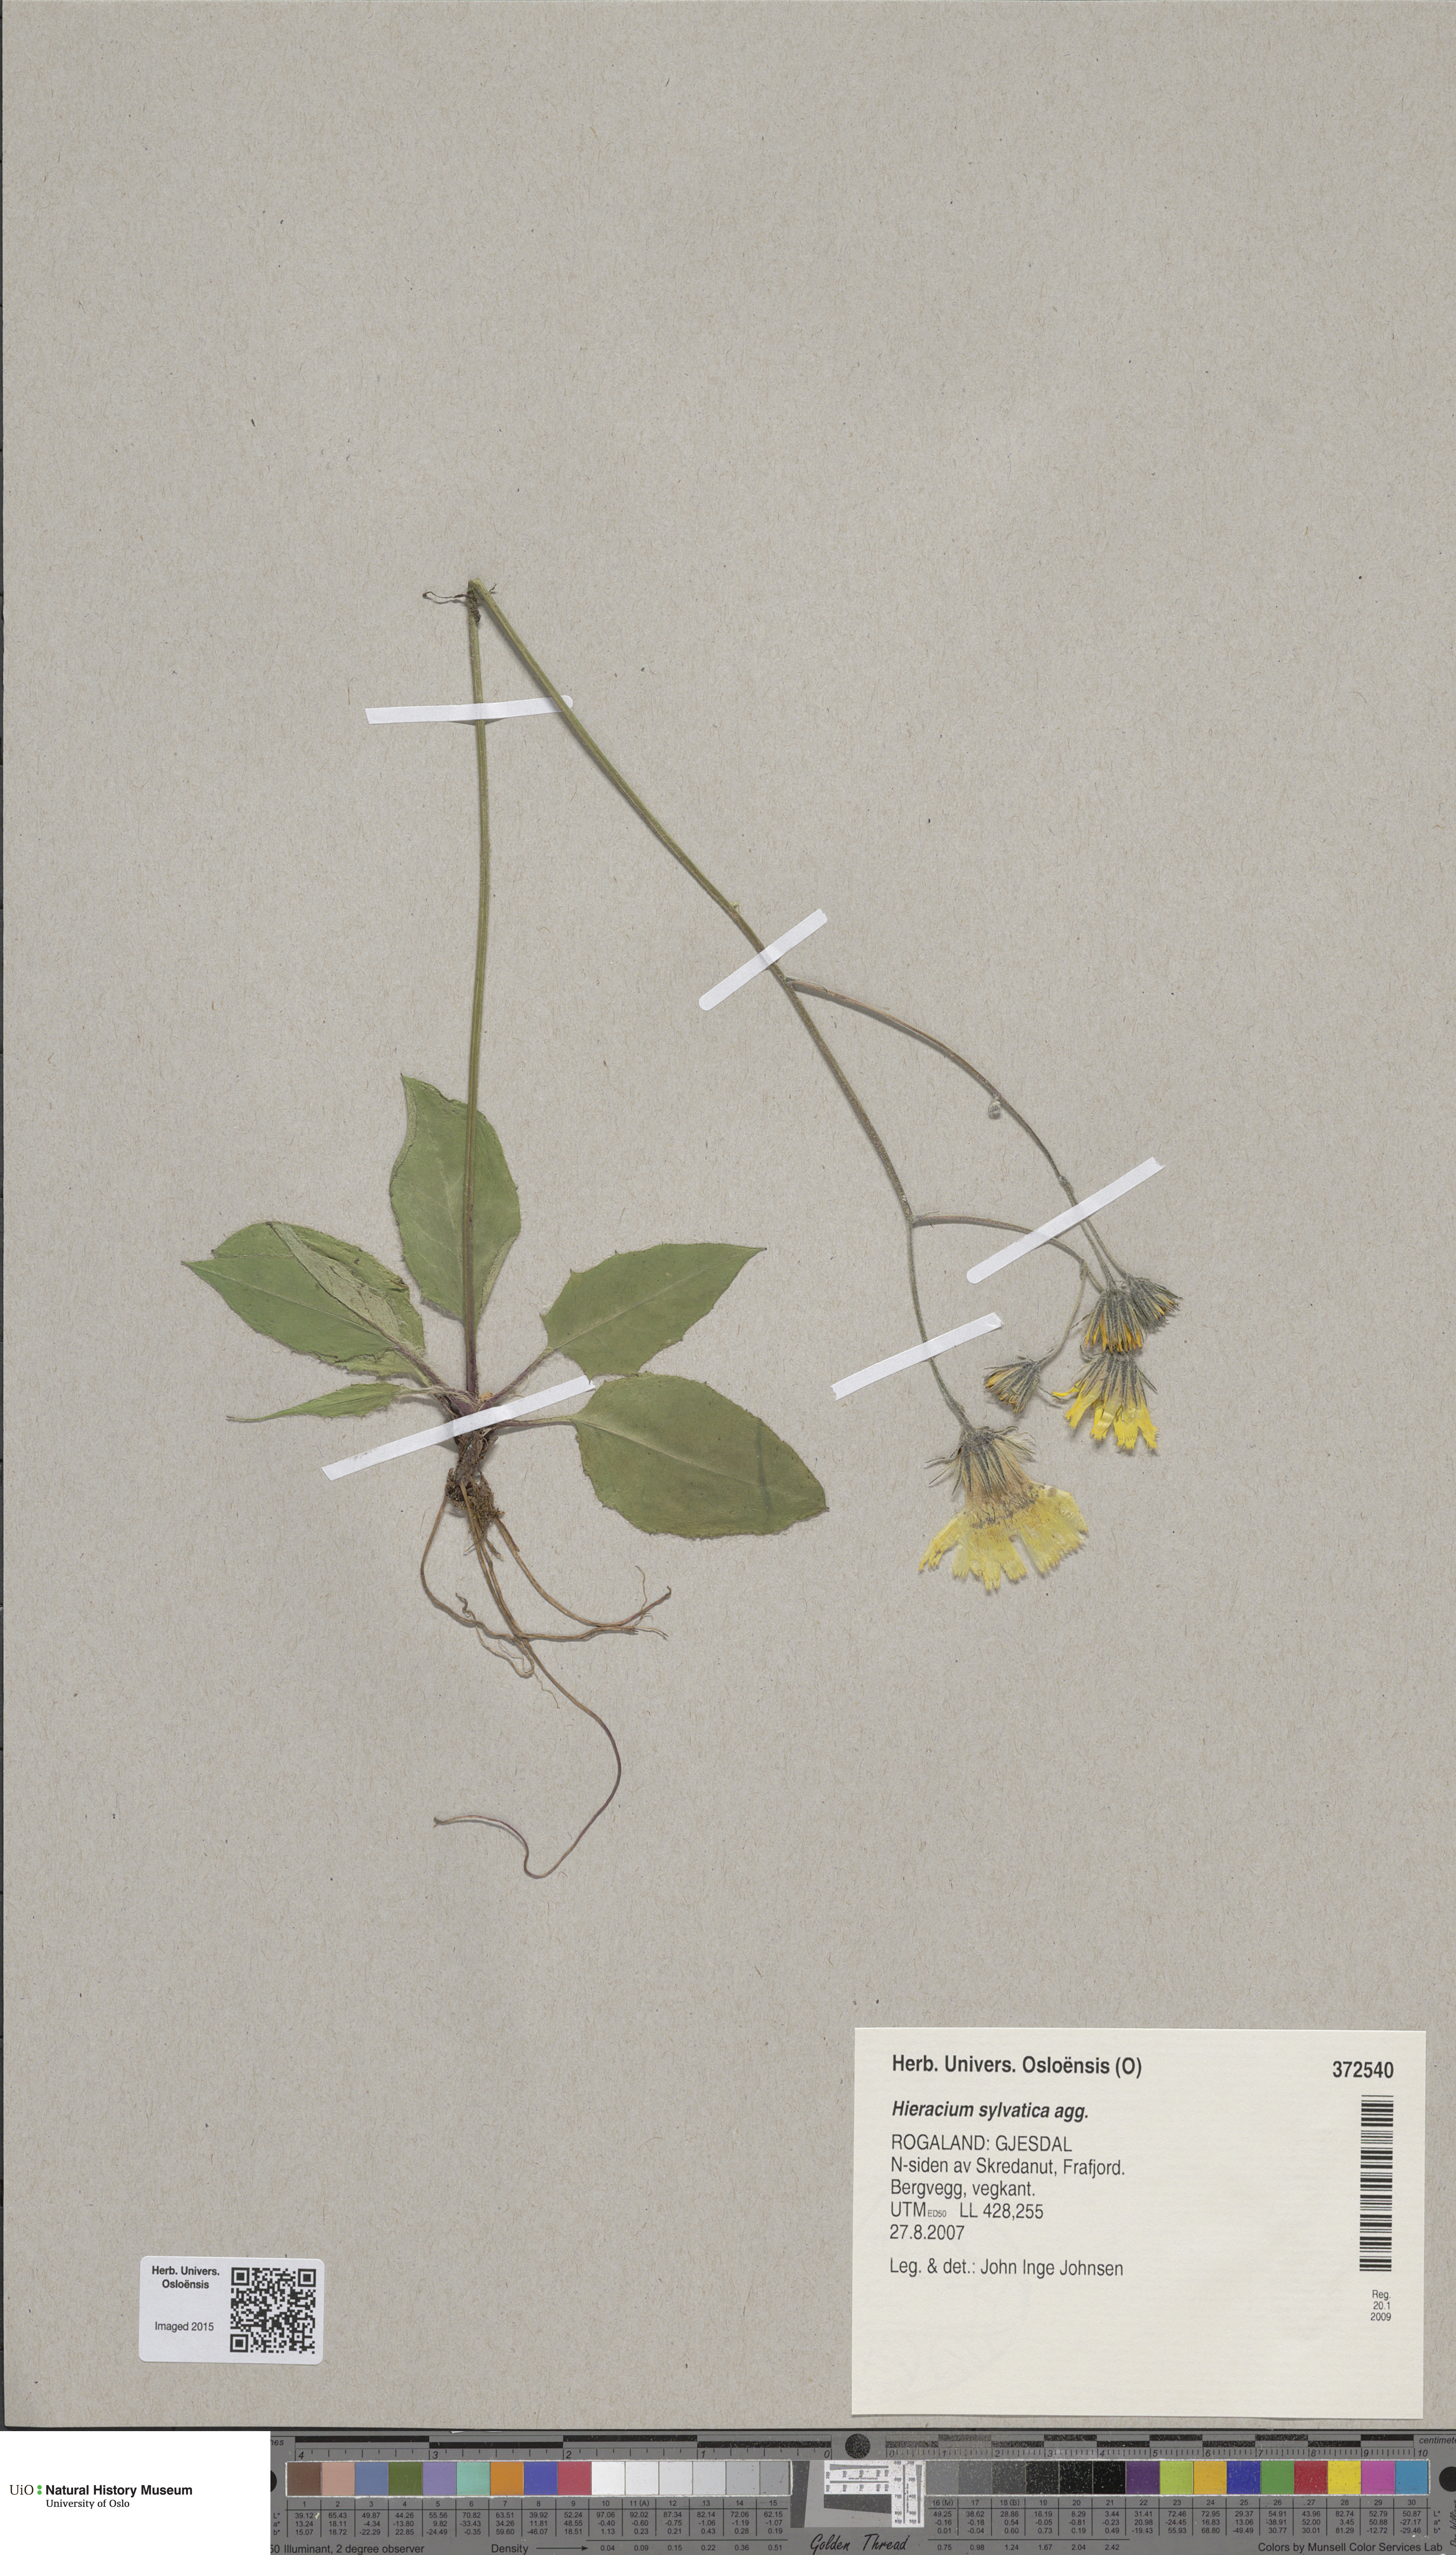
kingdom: Plantae
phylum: Tracheophyta
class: Magnoliopsida
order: Asterales
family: Asteraceae
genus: Hieracium
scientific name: Hieracium
